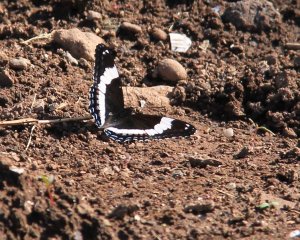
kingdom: Animalia
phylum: Arthropoda
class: Insecta
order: Lepidoptera
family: Nymphalidae
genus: Limenitis
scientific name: Limenitis arthemis
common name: Red-spotted Admiral
